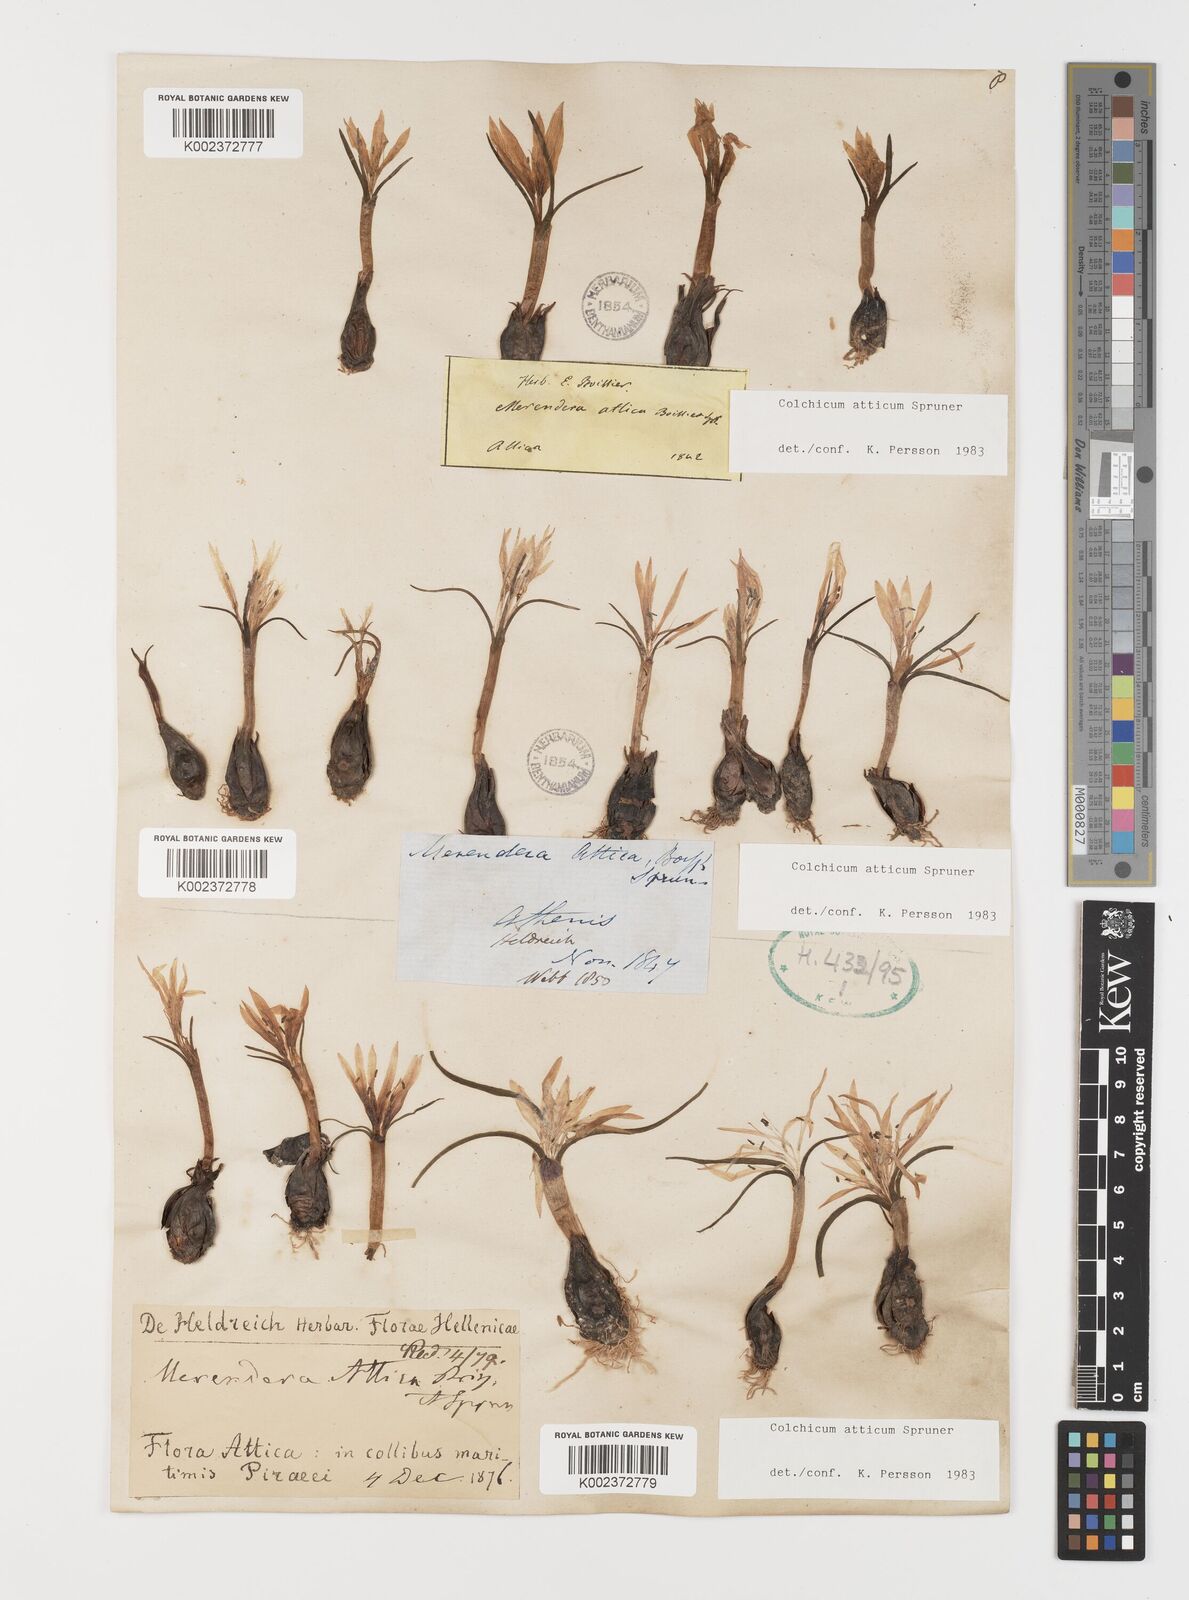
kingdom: Plantae
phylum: Tracheophyta
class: Liliopsida
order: Liliales
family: Colchicaceae
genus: Colchicum
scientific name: Colchicum atticum
